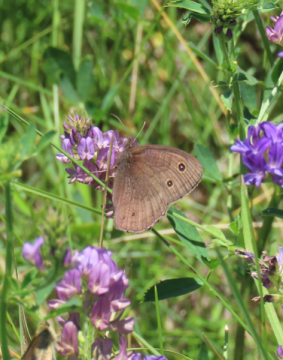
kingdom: Animalia
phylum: Arthropoda
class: Insecta
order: Lepidoptera
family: Nymphalidae
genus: Cercyonis
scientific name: Cercyonis pegala
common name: Common Wood-Nymph
